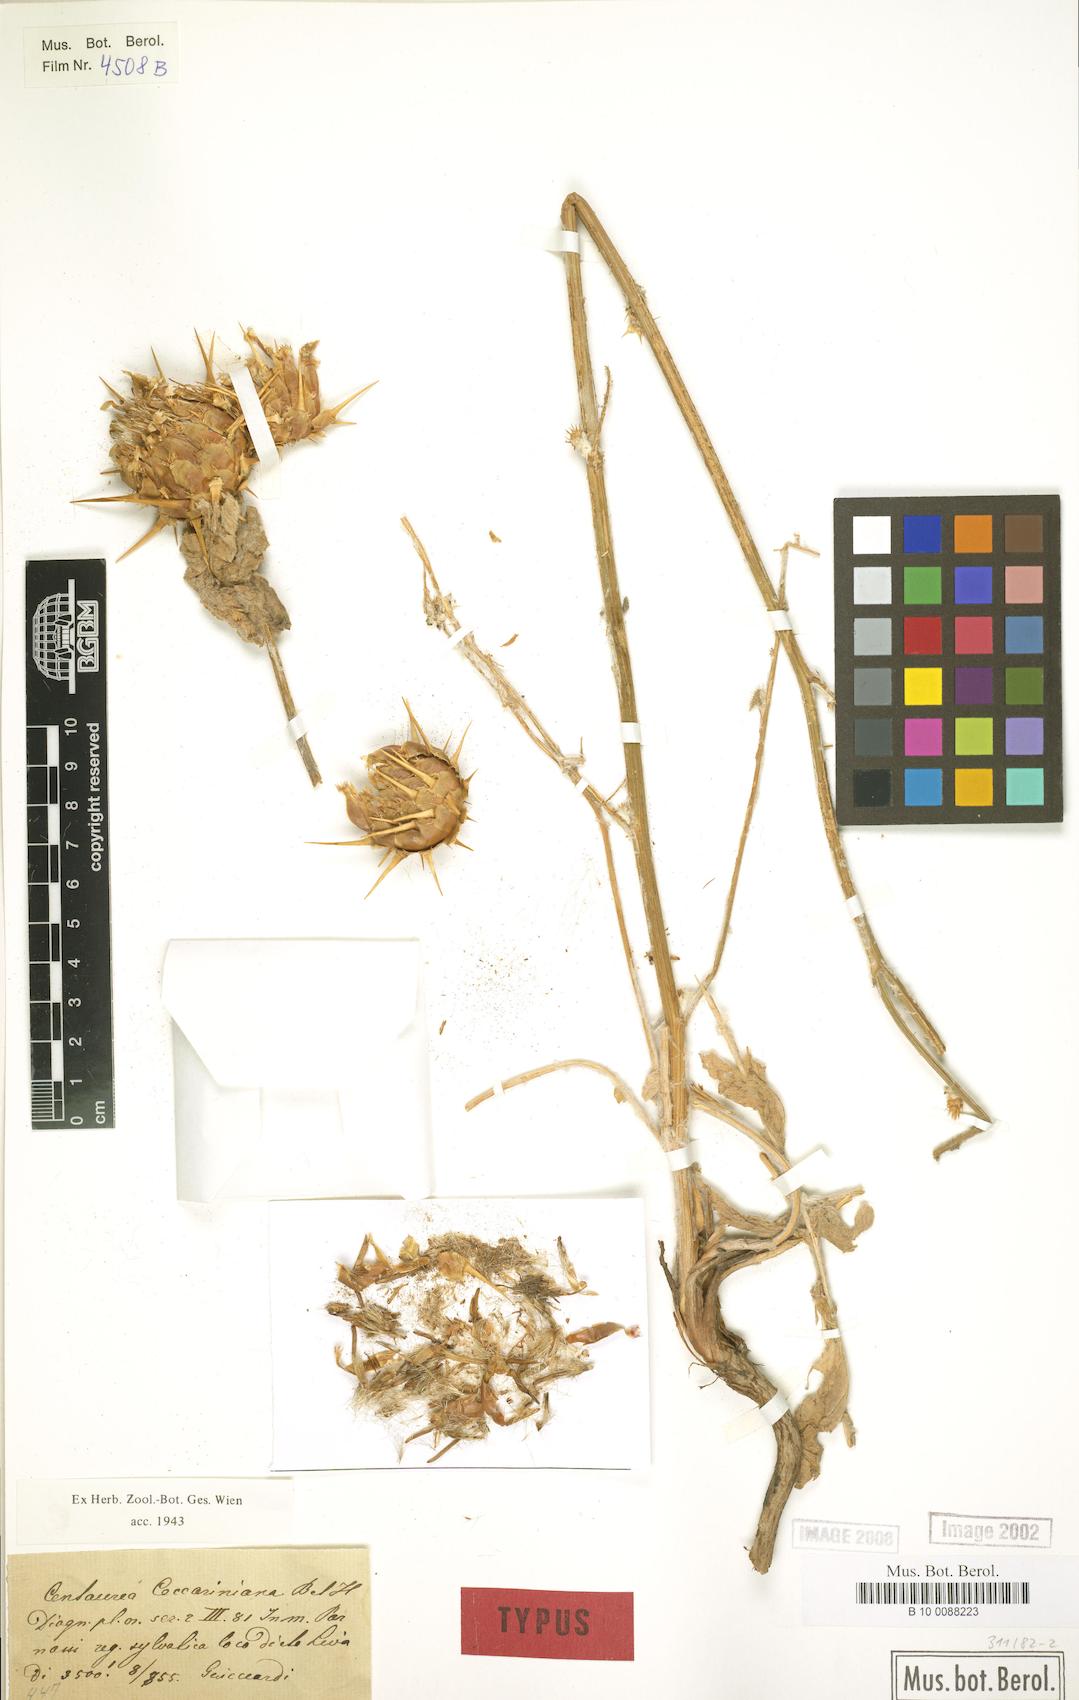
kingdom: Plantae
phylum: Tracheophyta
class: Magnoliopsida
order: Asterales
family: Asteraceae
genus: Centaurea
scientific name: Centaurea graeca
